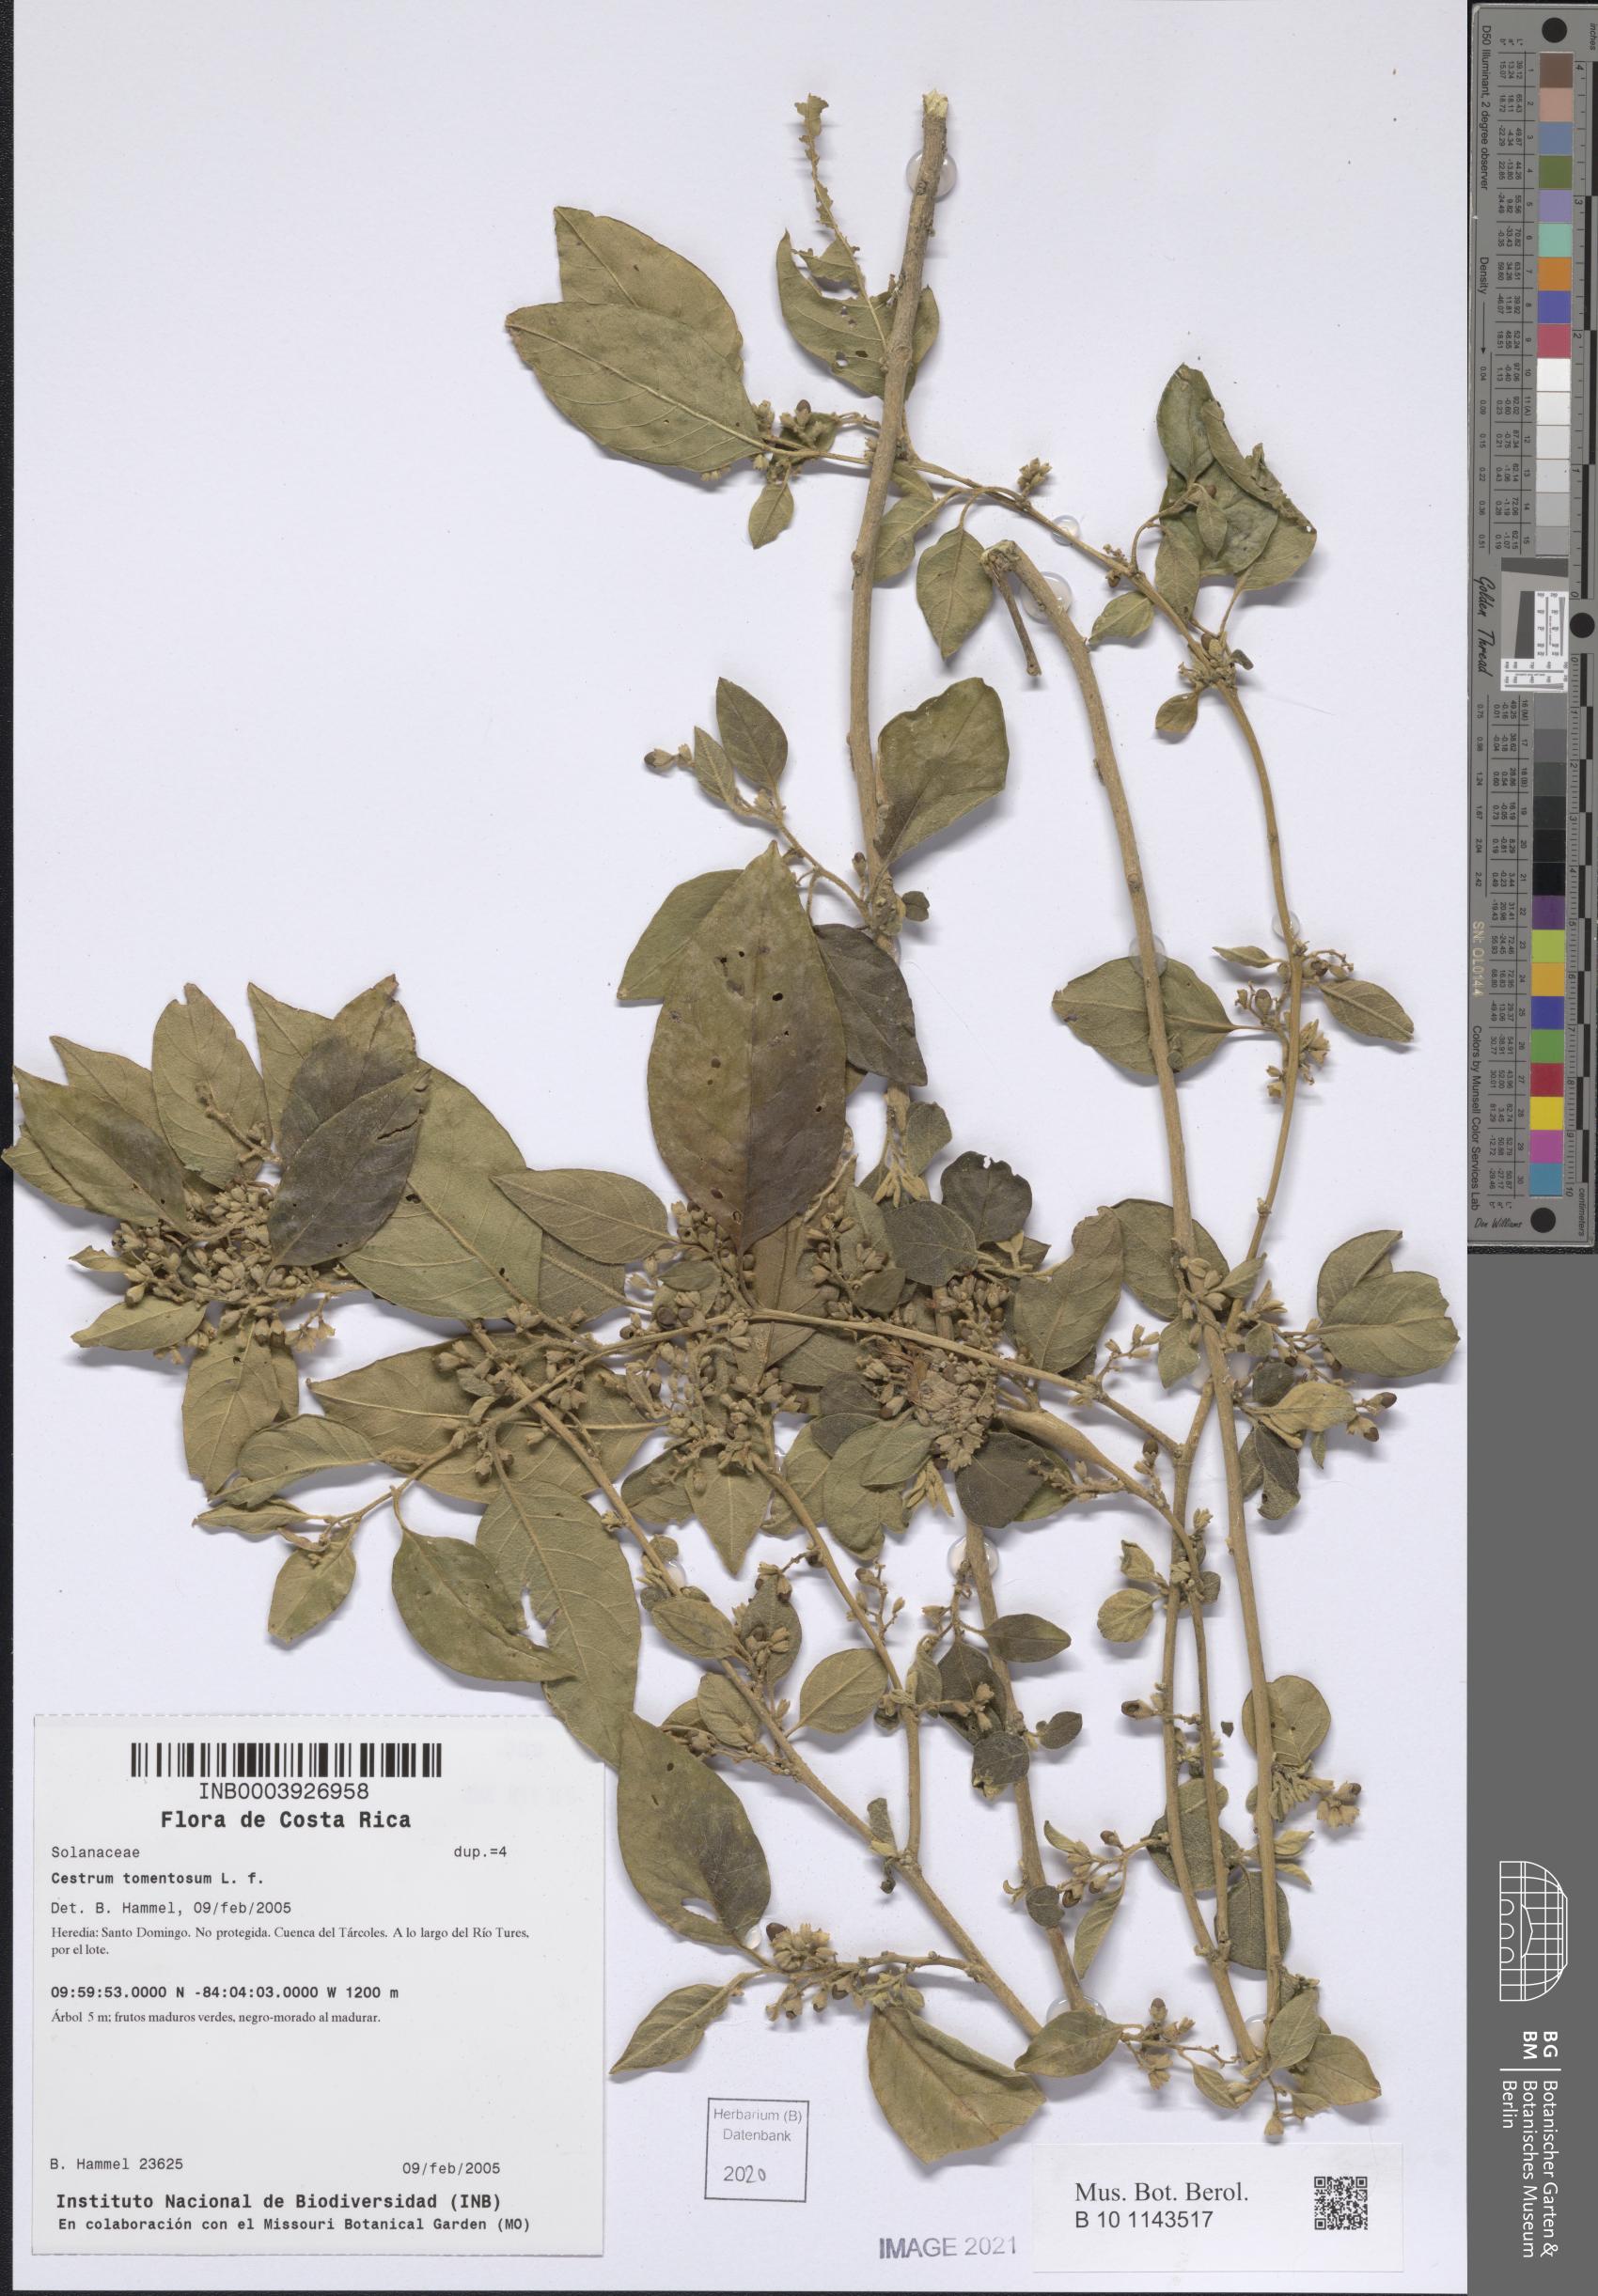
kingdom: Plantae
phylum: Tracheophyta
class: Magnoliopsida
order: Solanales
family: Solanaceae
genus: Cestrum
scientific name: Cestrum tomentosum
